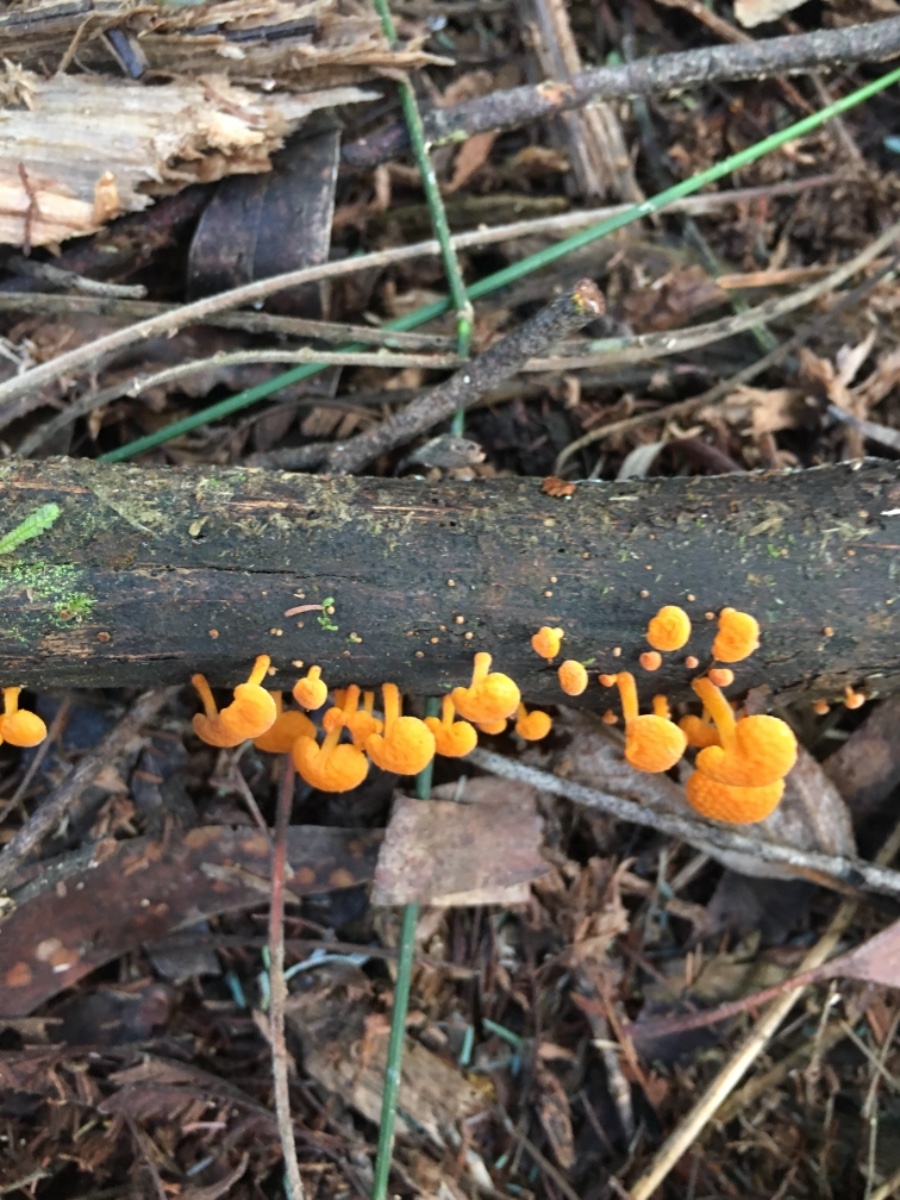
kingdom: Fungi
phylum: Basidiomycota
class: Agaricomycetes
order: Agaricales
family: Mycenaceae
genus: Favolaschia
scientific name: Favolaschia claudopus
